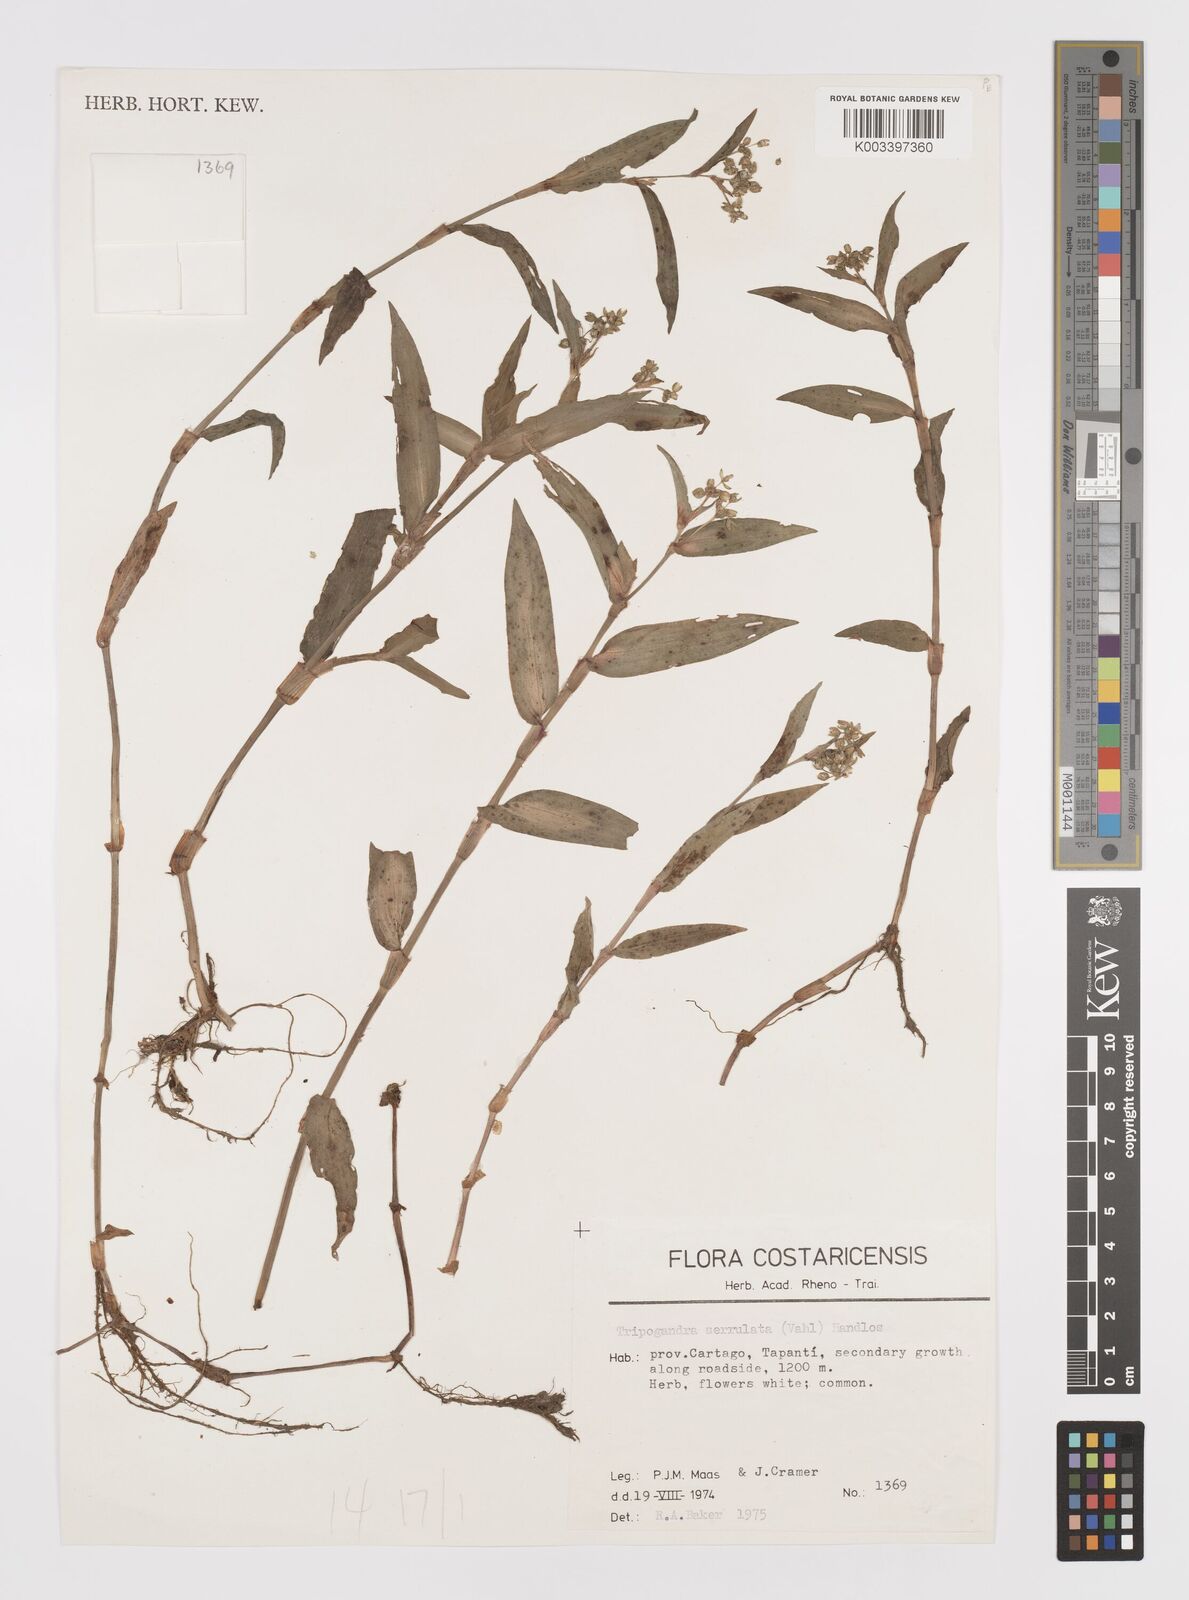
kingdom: Plantae
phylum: Tracheophyta
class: Liliopsida
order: Commelinales
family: Commelinaceae
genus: Callisia
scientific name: Callisia serrulata
